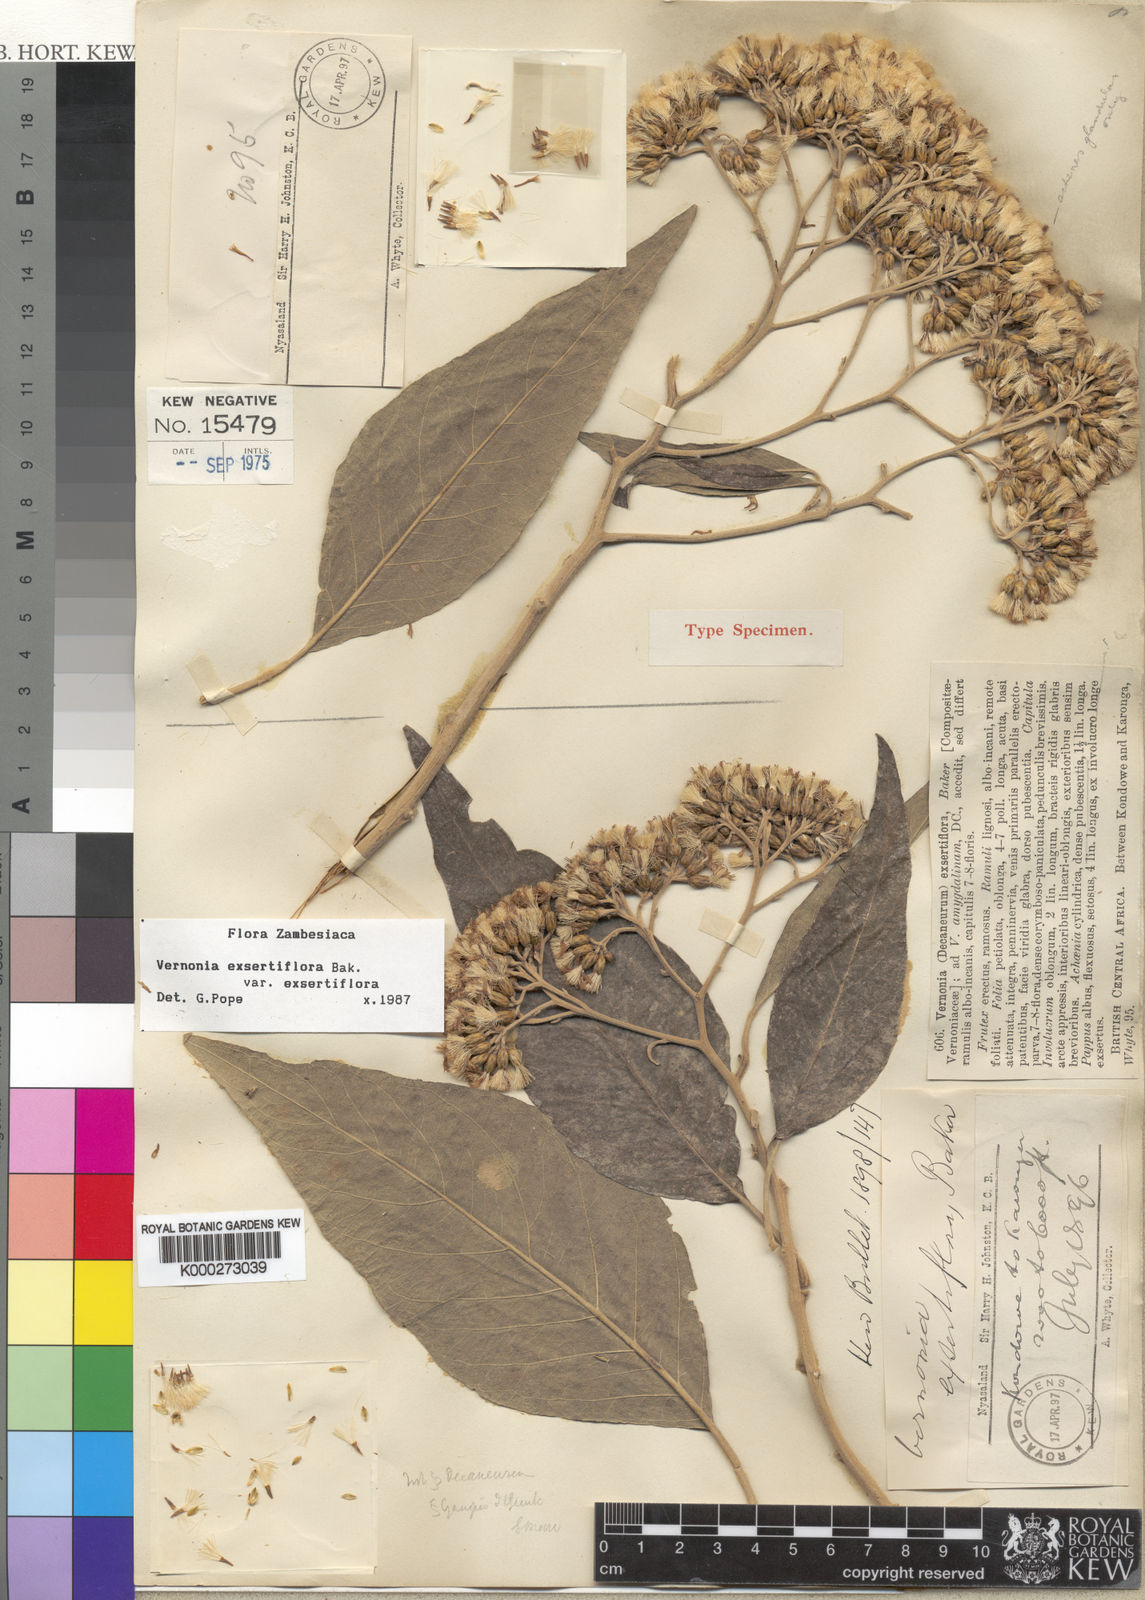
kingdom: Plantae
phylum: Tracheophyta
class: Magnoliopsida
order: Asterales
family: Asteraceae
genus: Gymnanthemum
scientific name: Gymnanthemum exsertiflorum
